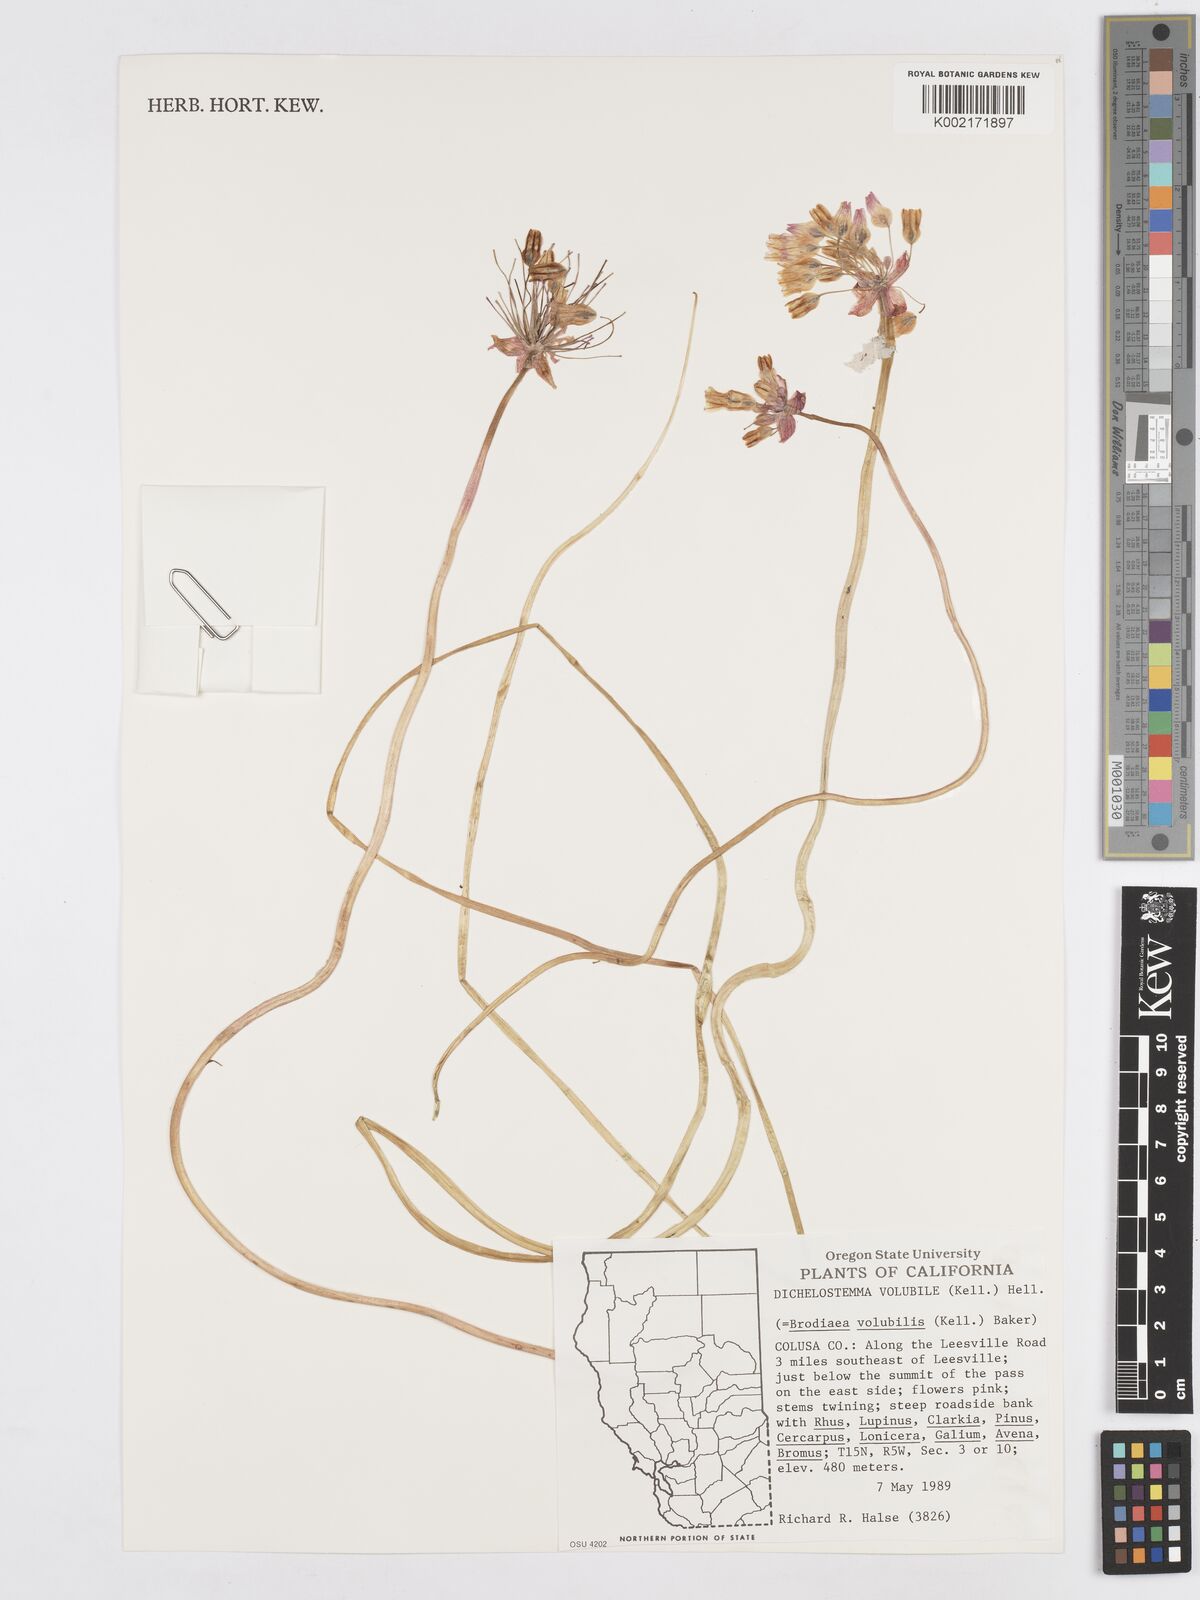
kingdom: Plantae
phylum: Tracheophyta
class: Liliopsida
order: Asparagales
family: Asparagaceae
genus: Dichelostemma
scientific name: Dichelostemma volubile
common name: Trining brodiaea
